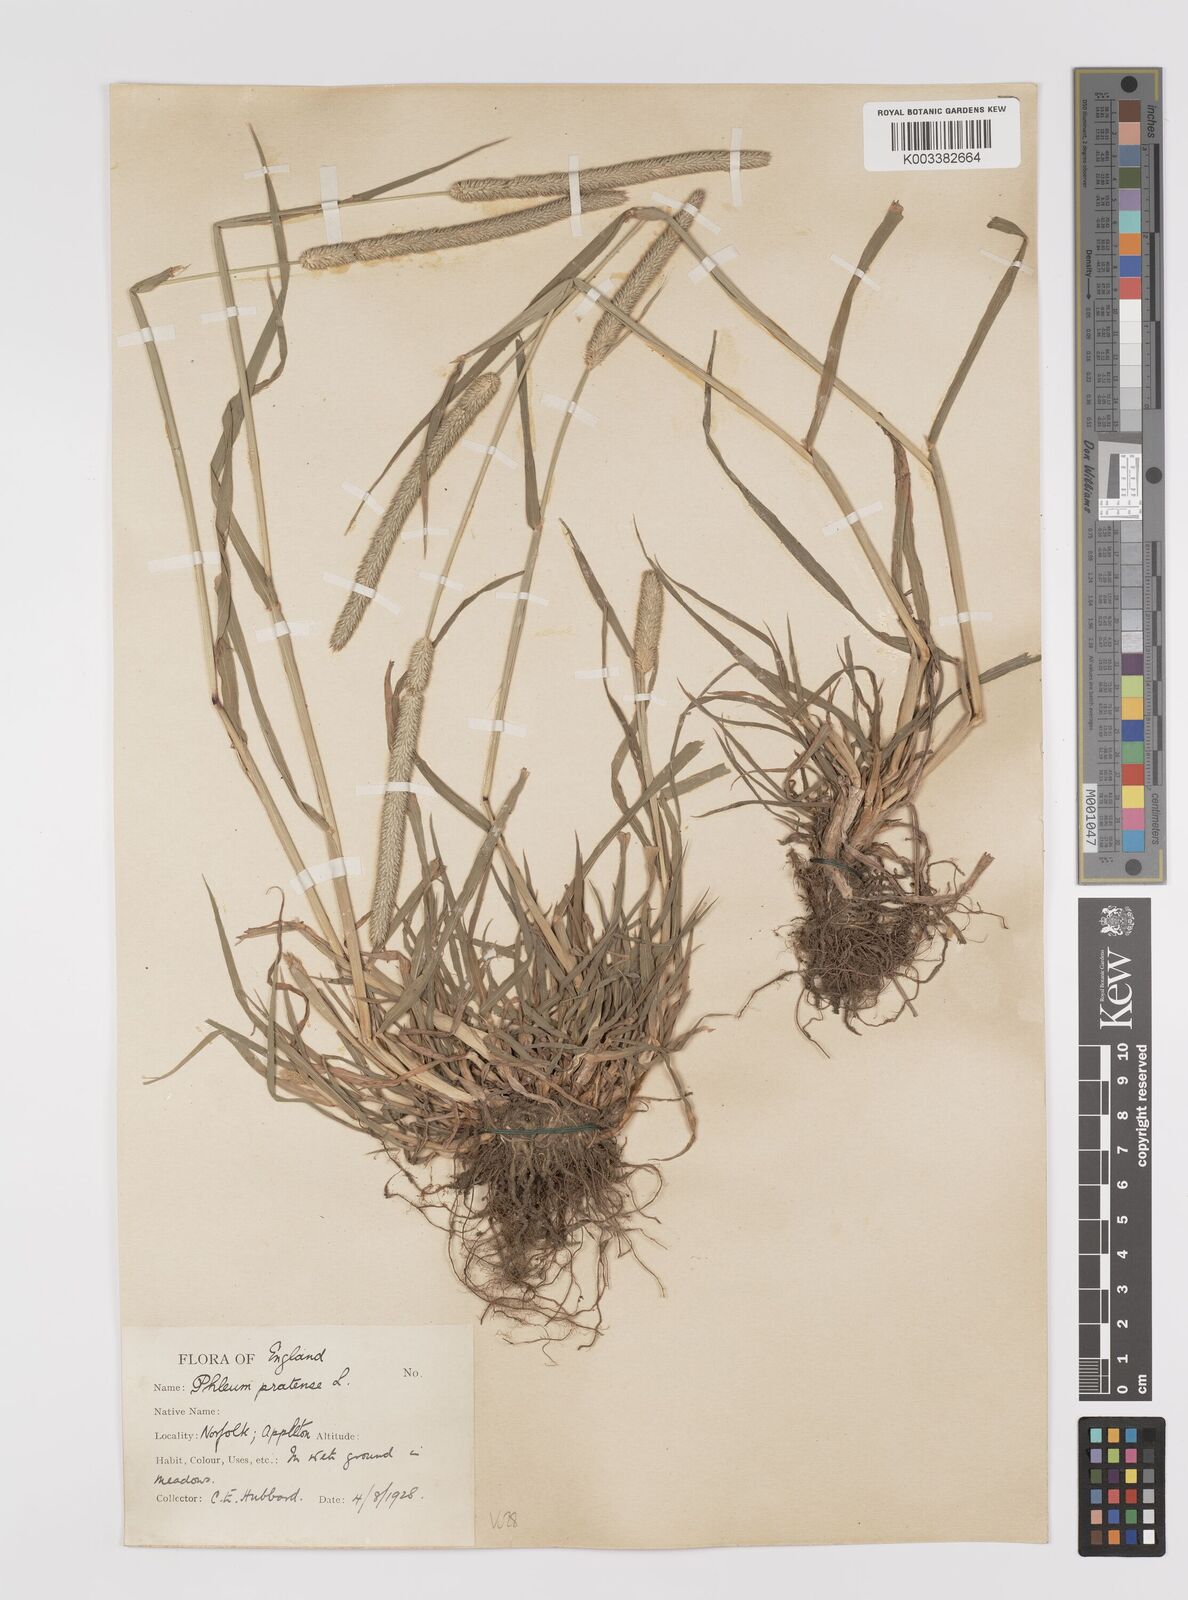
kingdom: Plantae
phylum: Tracheophyta
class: Liliopsida
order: Poales
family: Poaceae
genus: Phleum
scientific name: Phleum pratense
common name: Timothy grass
